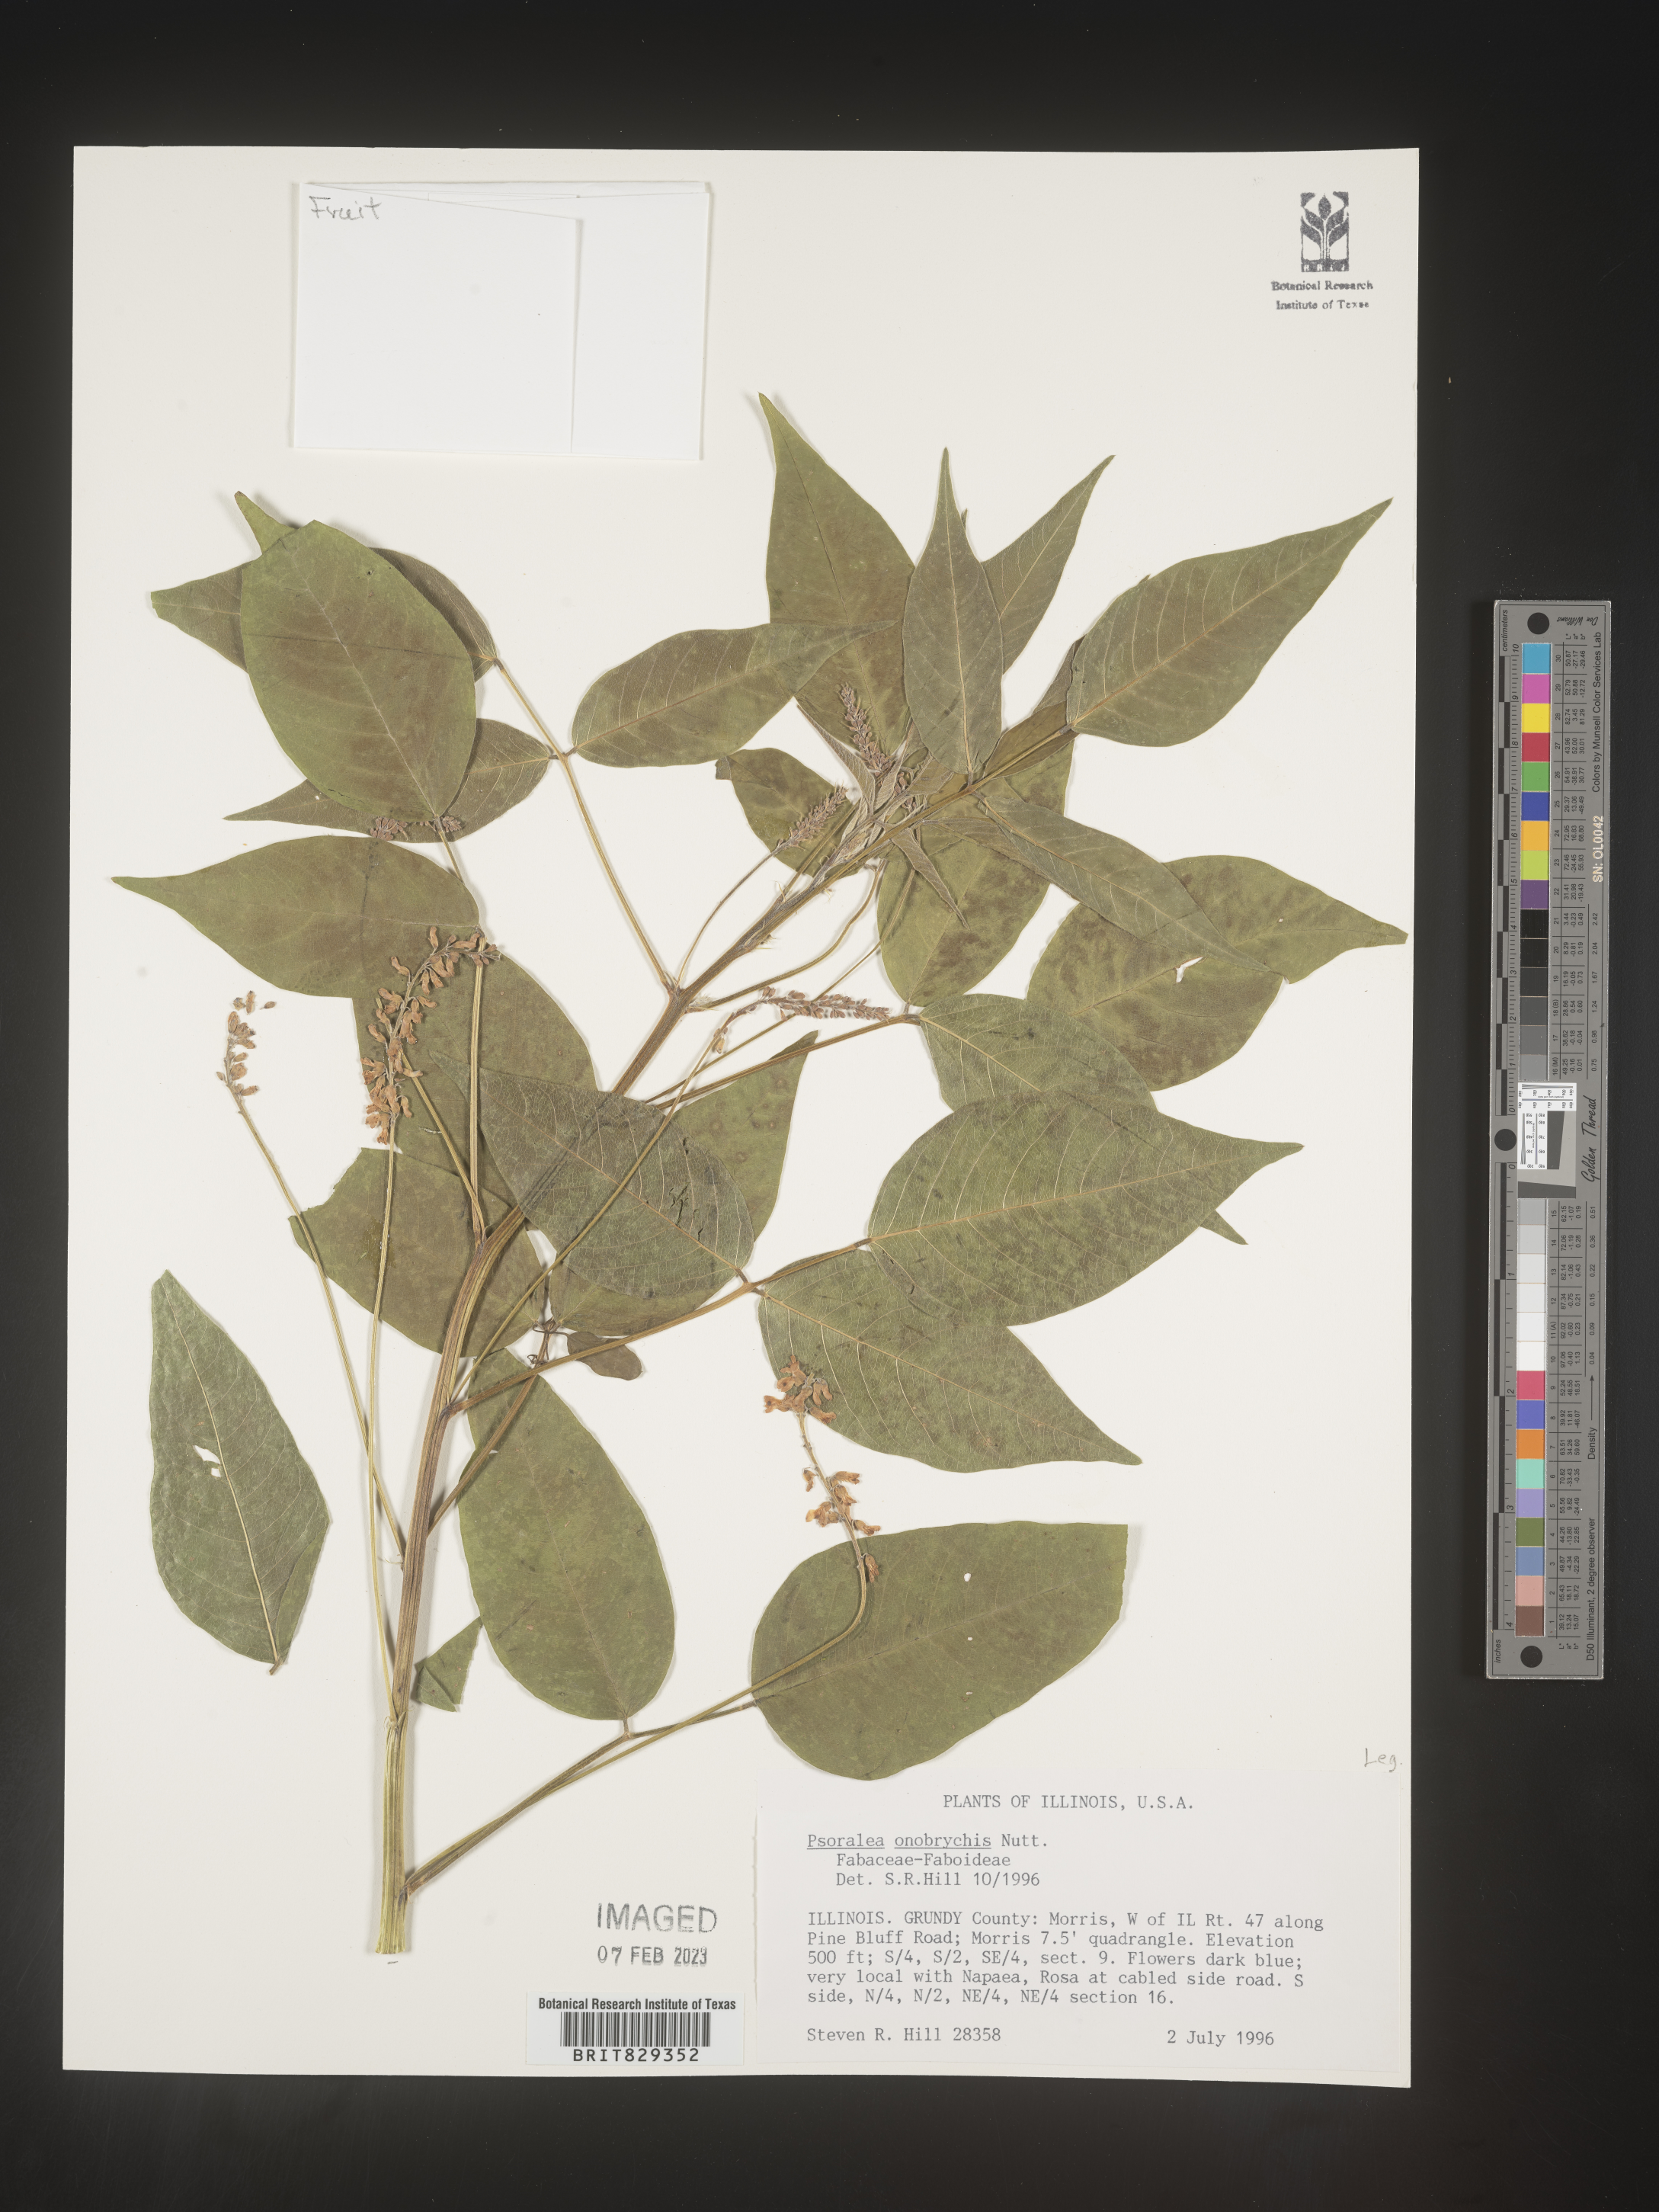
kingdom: Plantae
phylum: Tracheophyta
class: Magnoliopsida
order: Fabales
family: Fabaceae
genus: Psoralea
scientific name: Psoralea
